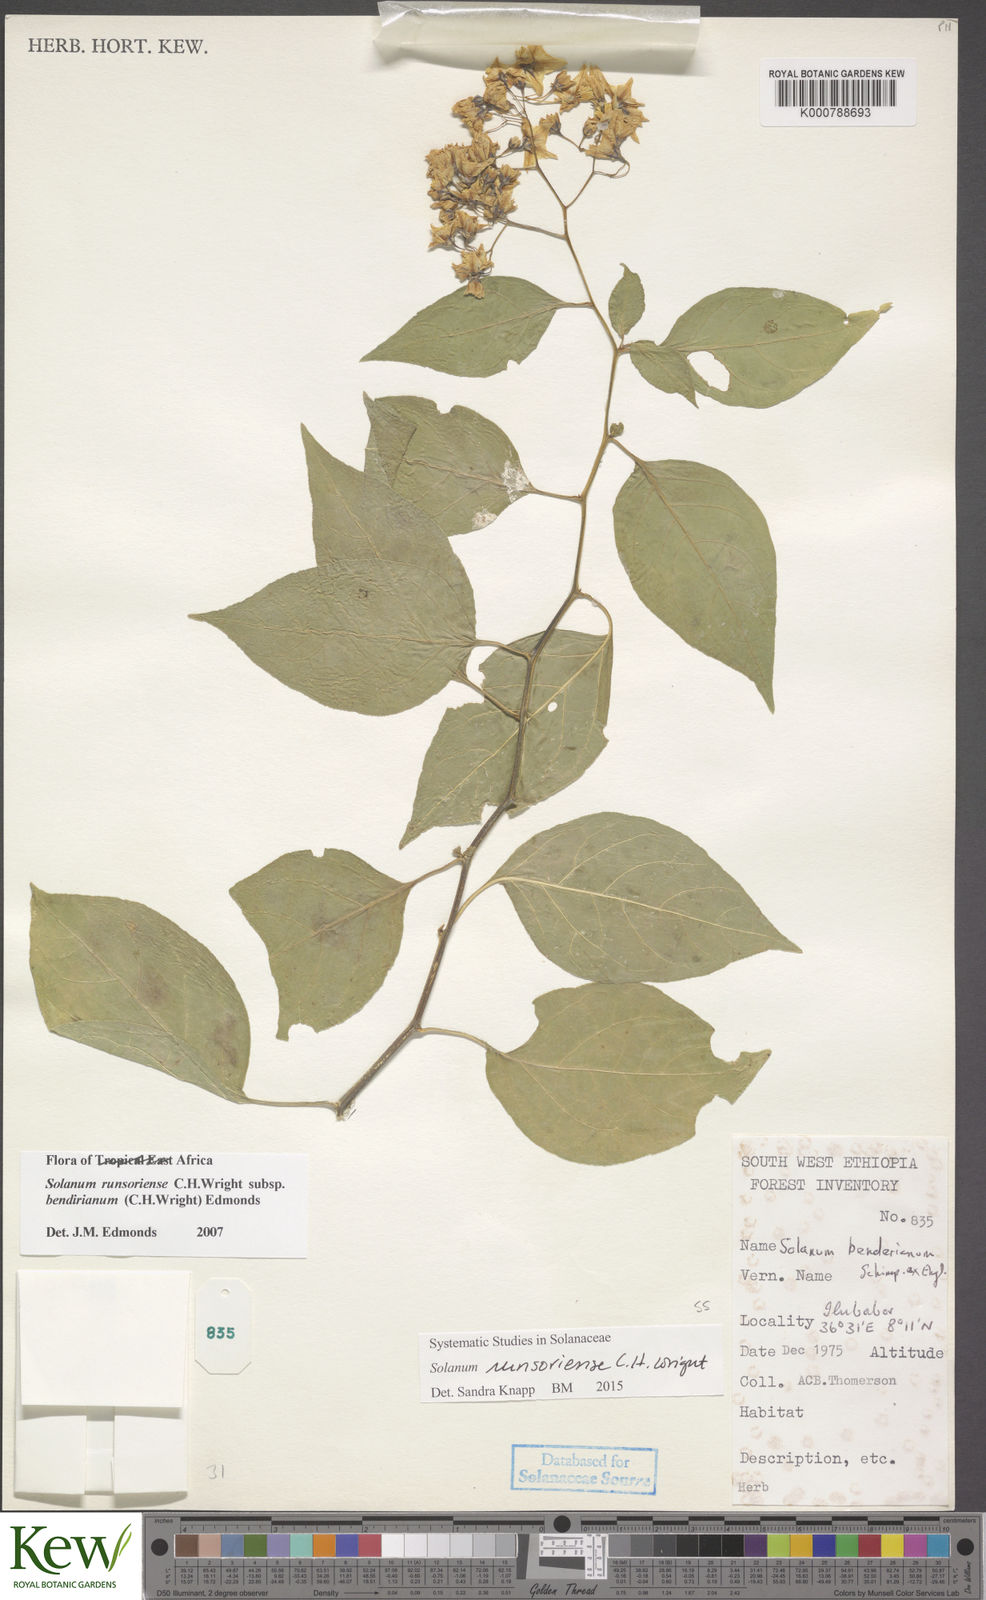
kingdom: Plantae
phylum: Tracheophyta
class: Magnoliopsida
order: Solanales
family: Solanaceae
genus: Solanum
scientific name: Solanum runsoriense
